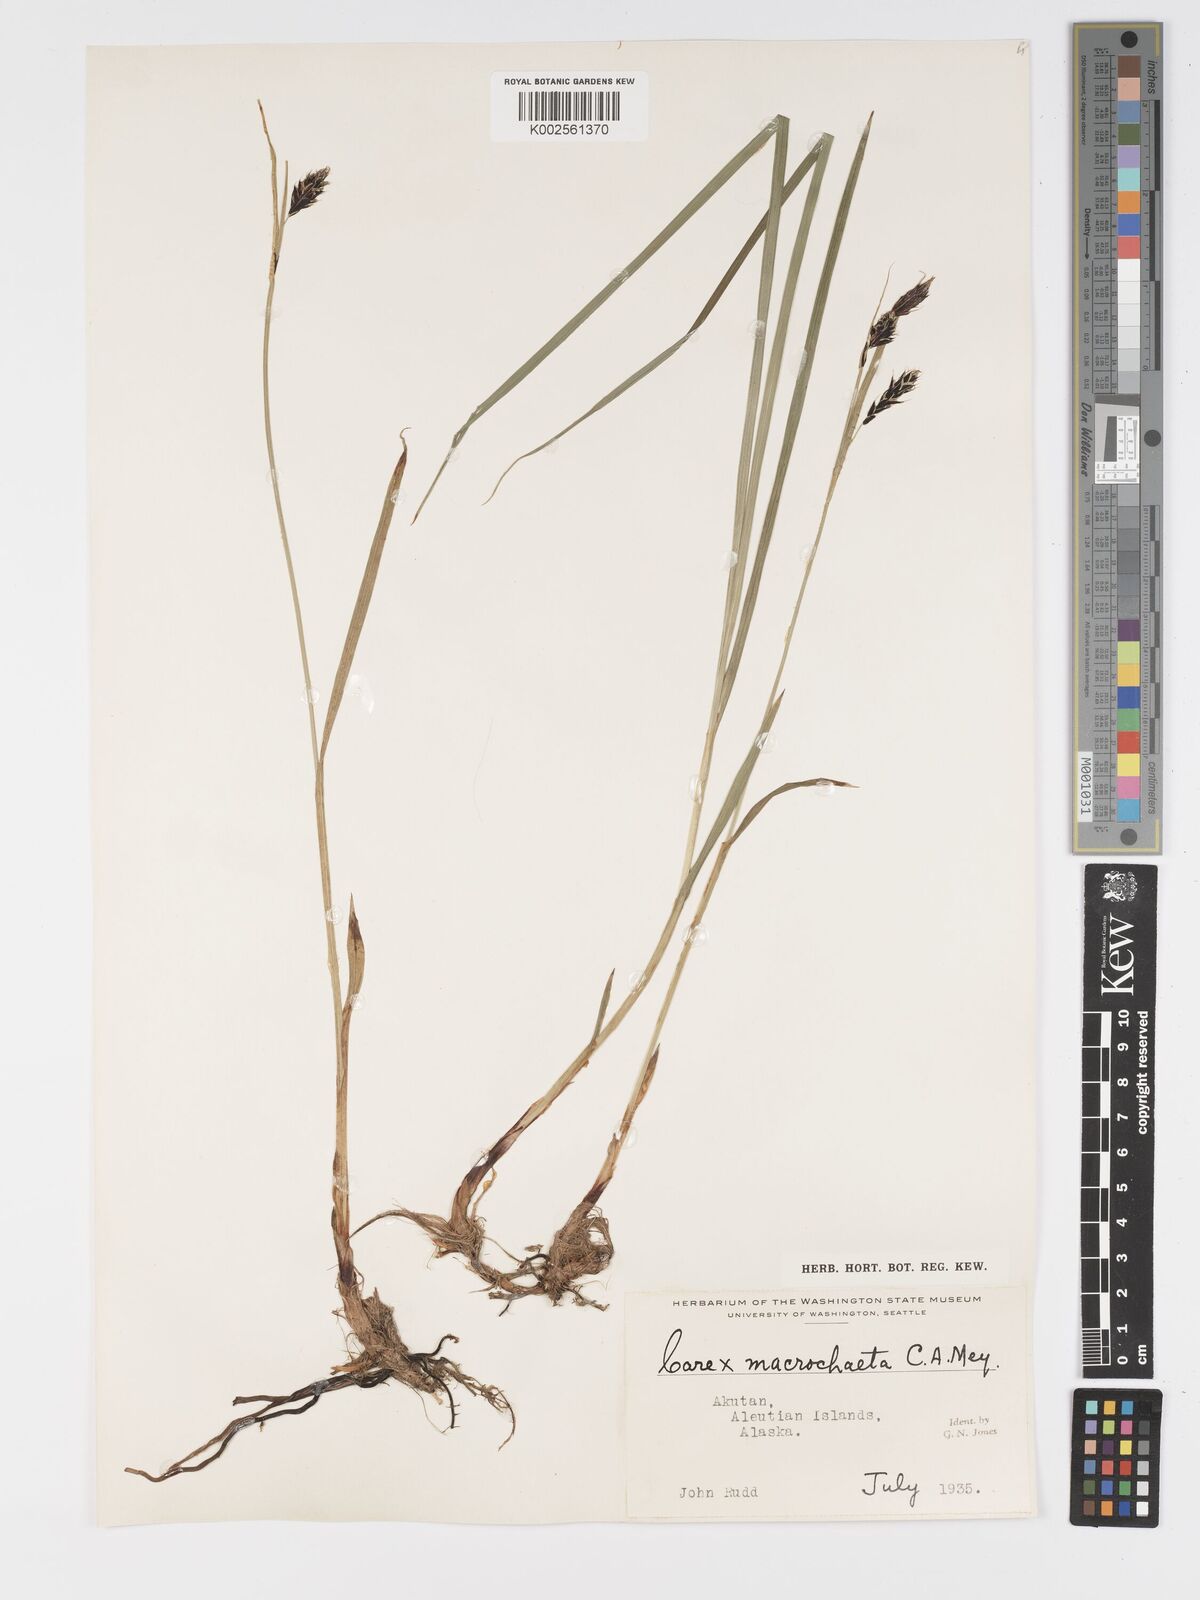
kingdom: Plantae
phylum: Tracheophyta
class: Liliopsida
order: Poales
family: Cyperaceae
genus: Carex
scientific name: Carex macrochaeta
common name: Alaska large awn sedge
